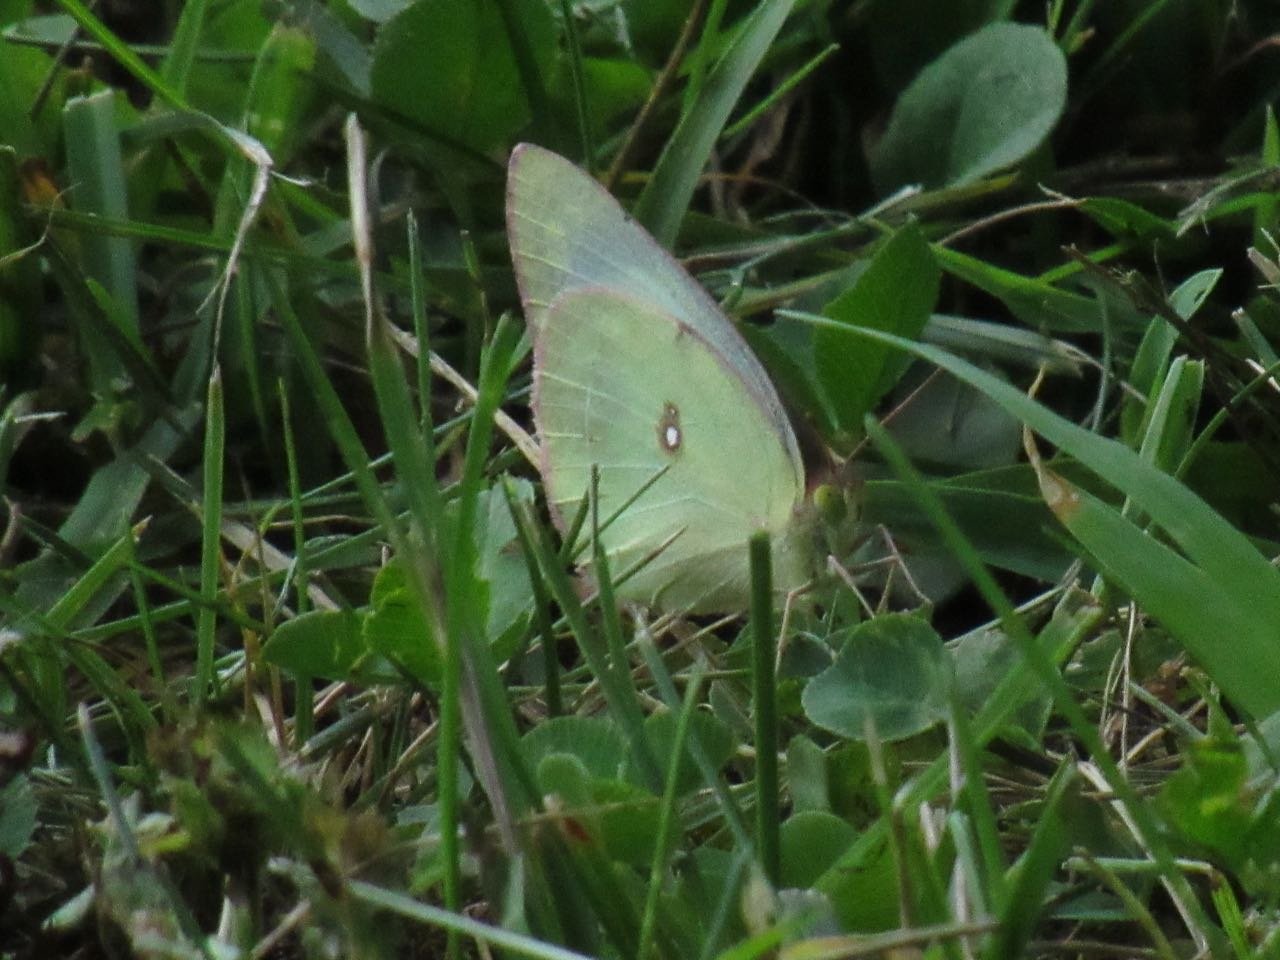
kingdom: Animalia
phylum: Arthropoda
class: Insecta
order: Lepidoptera
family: Pieridae
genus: Colias
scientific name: Colias philodice
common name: Clouded Sulphur
